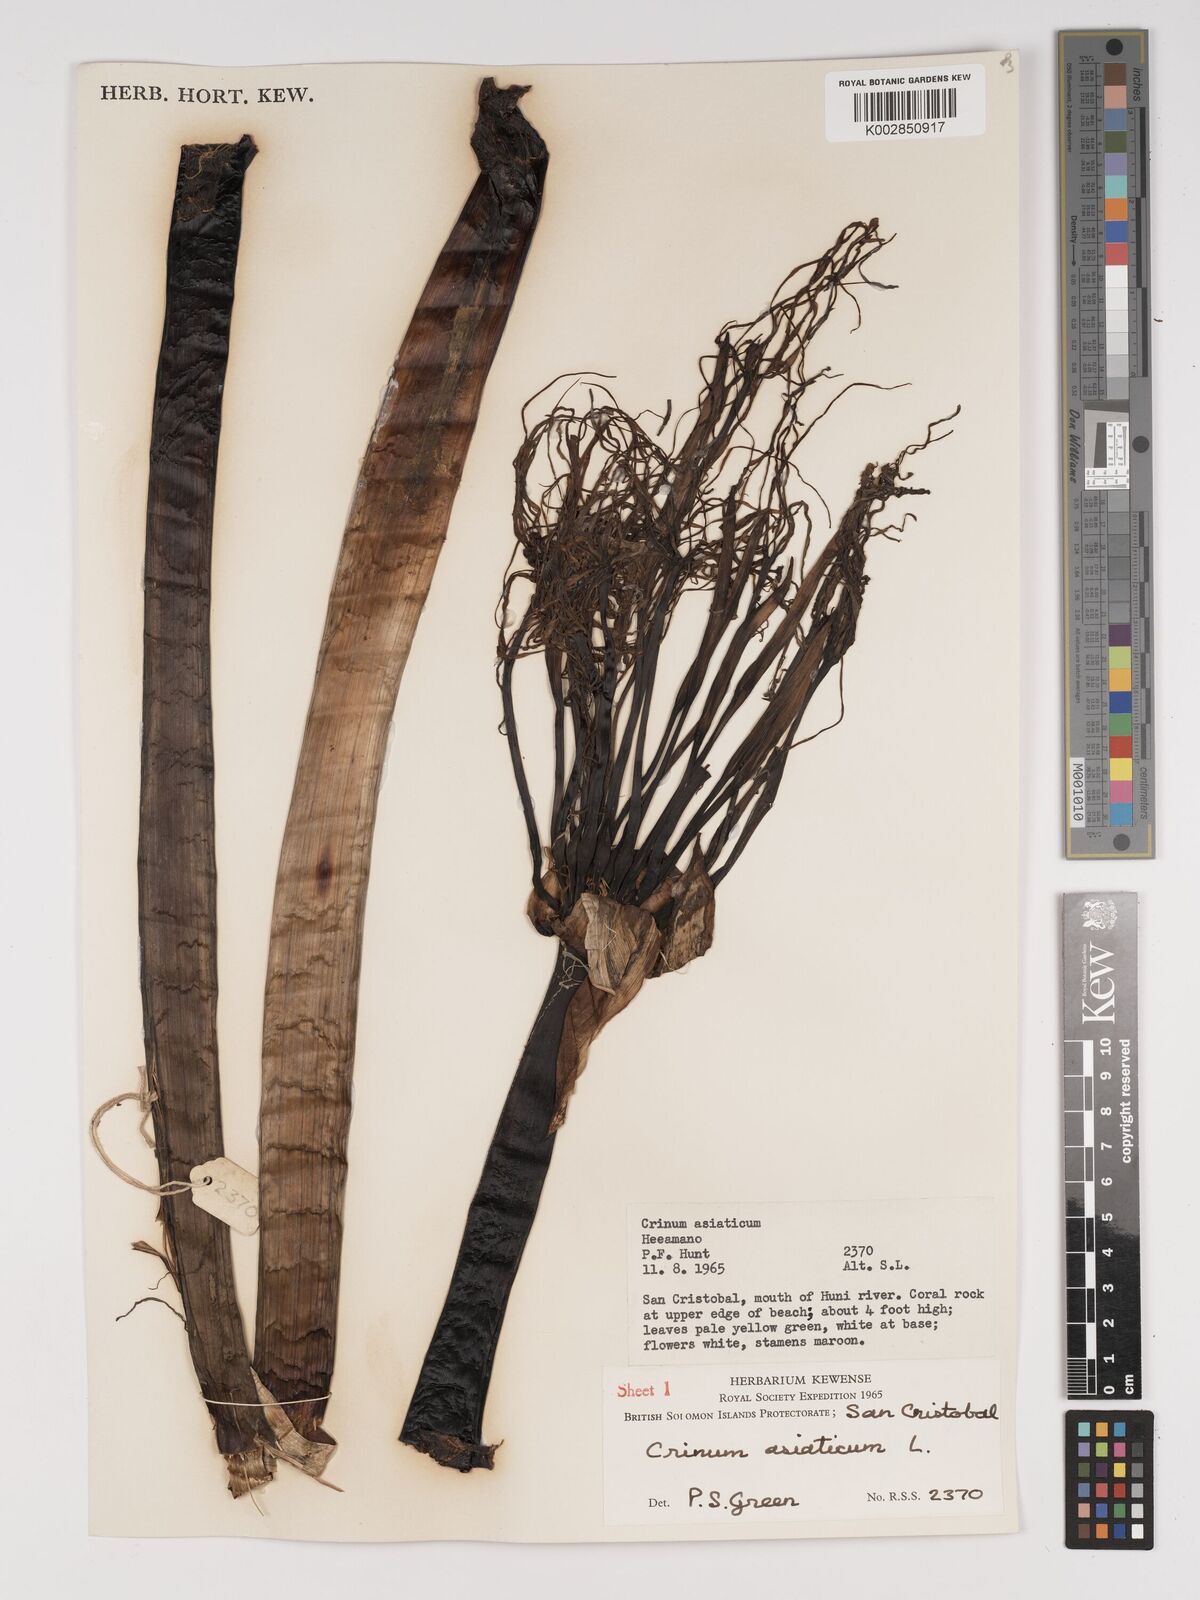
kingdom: Plantae
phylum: Tracheophyta
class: Liliopsida
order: Asparagales
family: Amaryllidaceae
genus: Crinum
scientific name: Crinum asiaticum
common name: Poisonbulb
